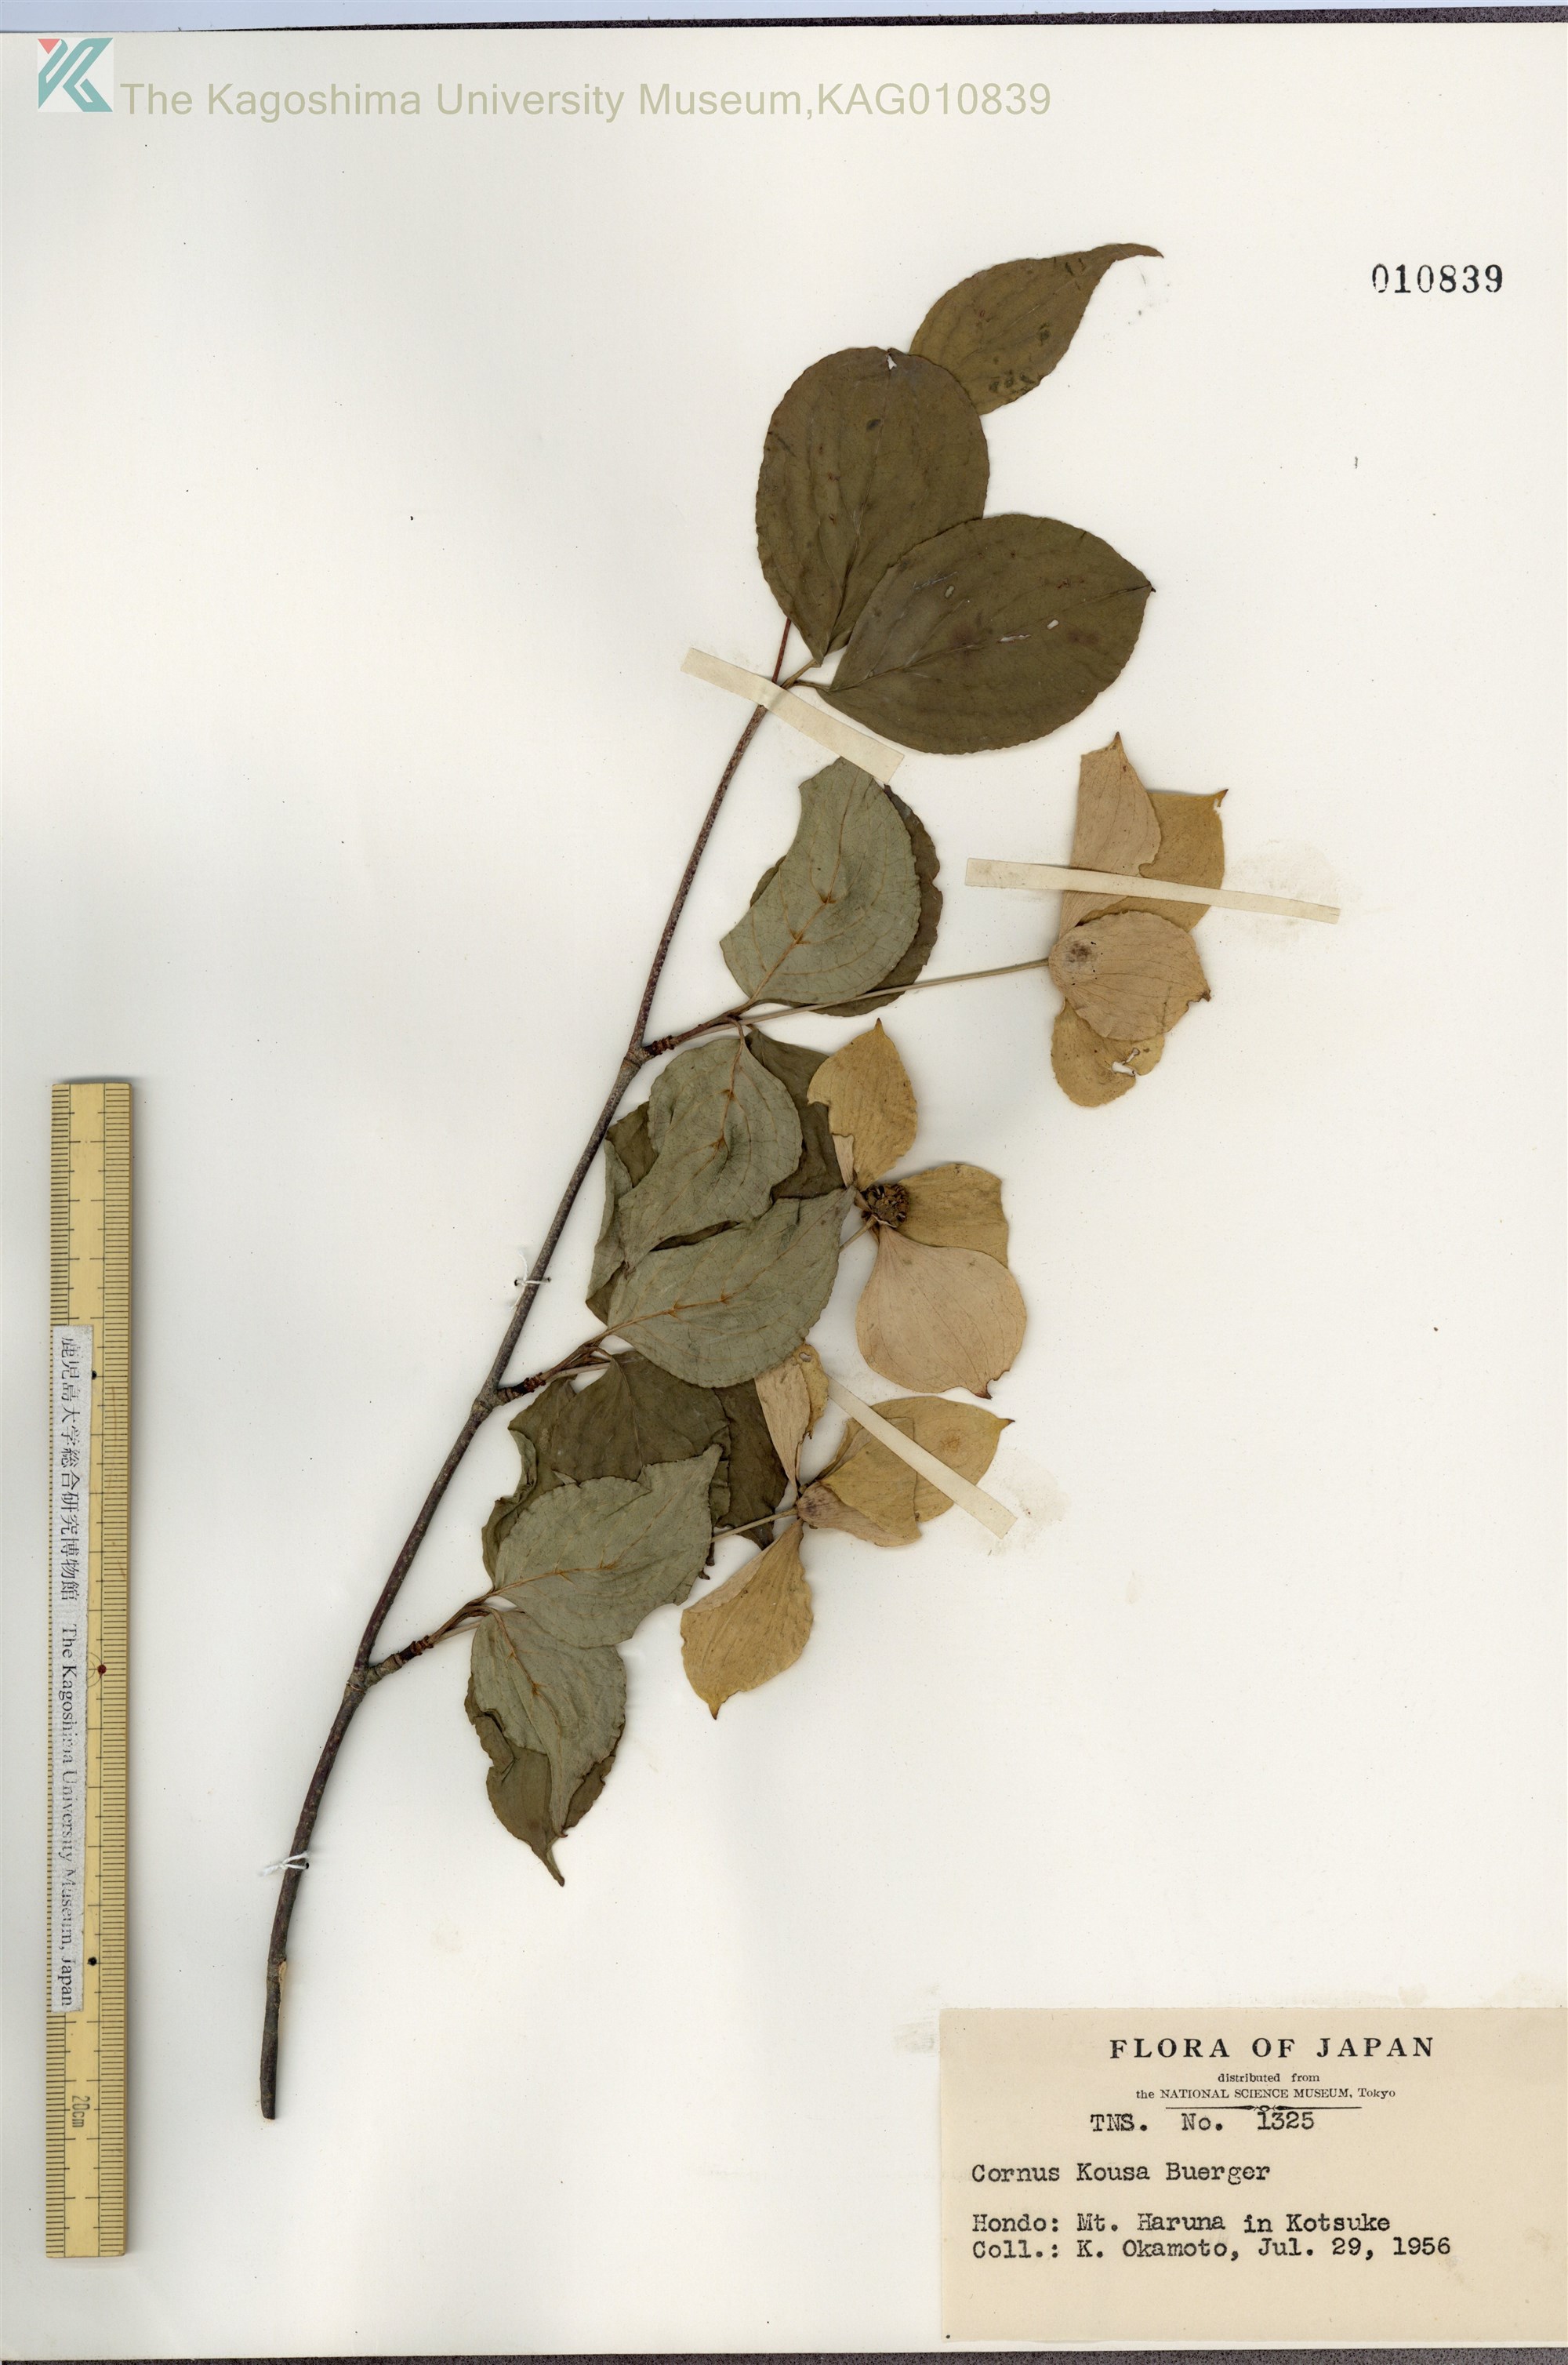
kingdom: Plantae
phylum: Tracheophyta
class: Magnoliopsida
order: Cornales
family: Cornaceae
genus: Cornus
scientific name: Cornus kousa
